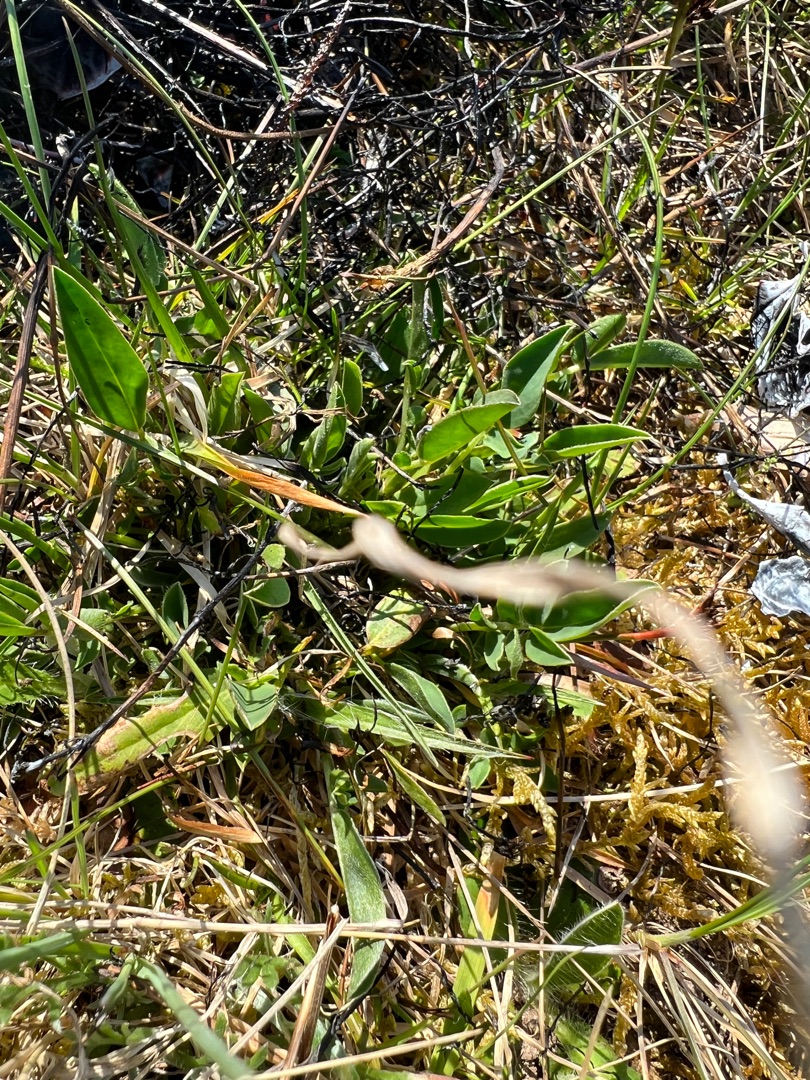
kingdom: Plantae
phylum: Tracheophyta
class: Magnoliopsida
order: Fabales
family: Fabaceae
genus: Anthyllis
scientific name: Anthyllis vulneraria
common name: Rundbælg
